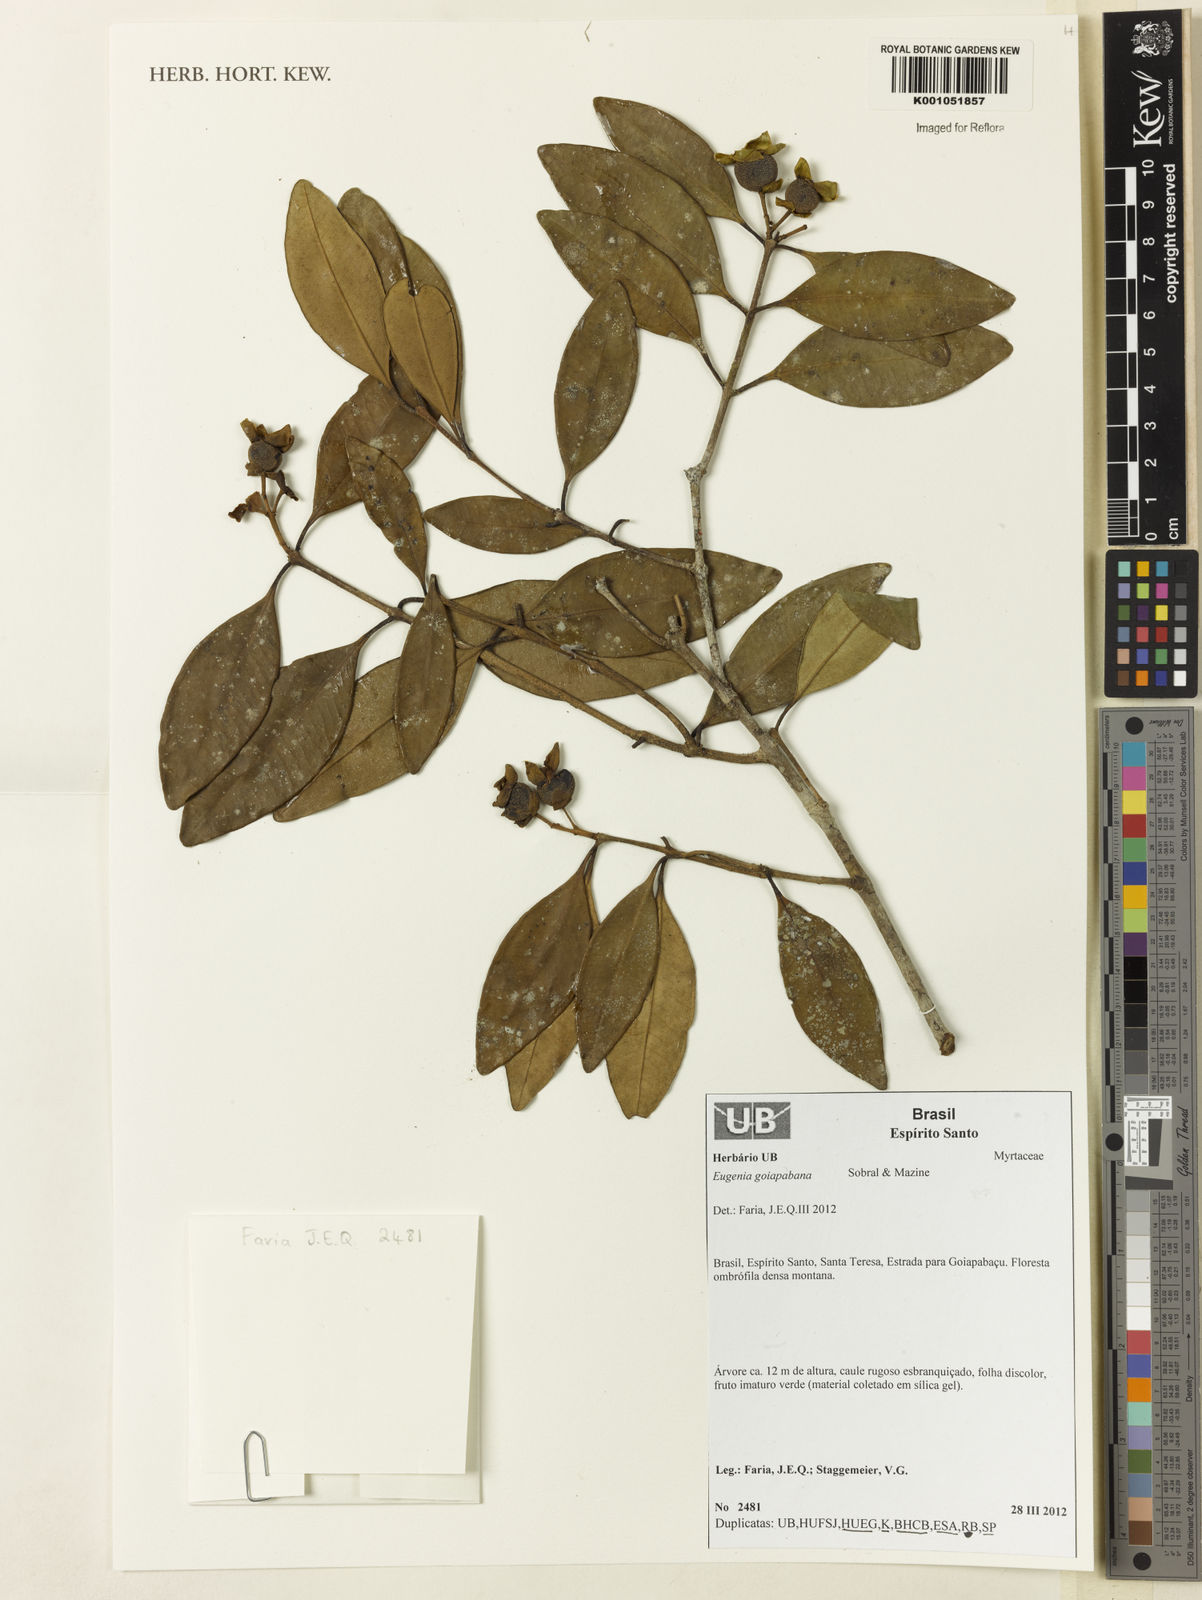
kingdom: Plantae
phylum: Tracheophyta
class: Magnoliopsida
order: Myrtales
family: Myrtaceae
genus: Eugenia
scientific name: Eugenia goiapabana
